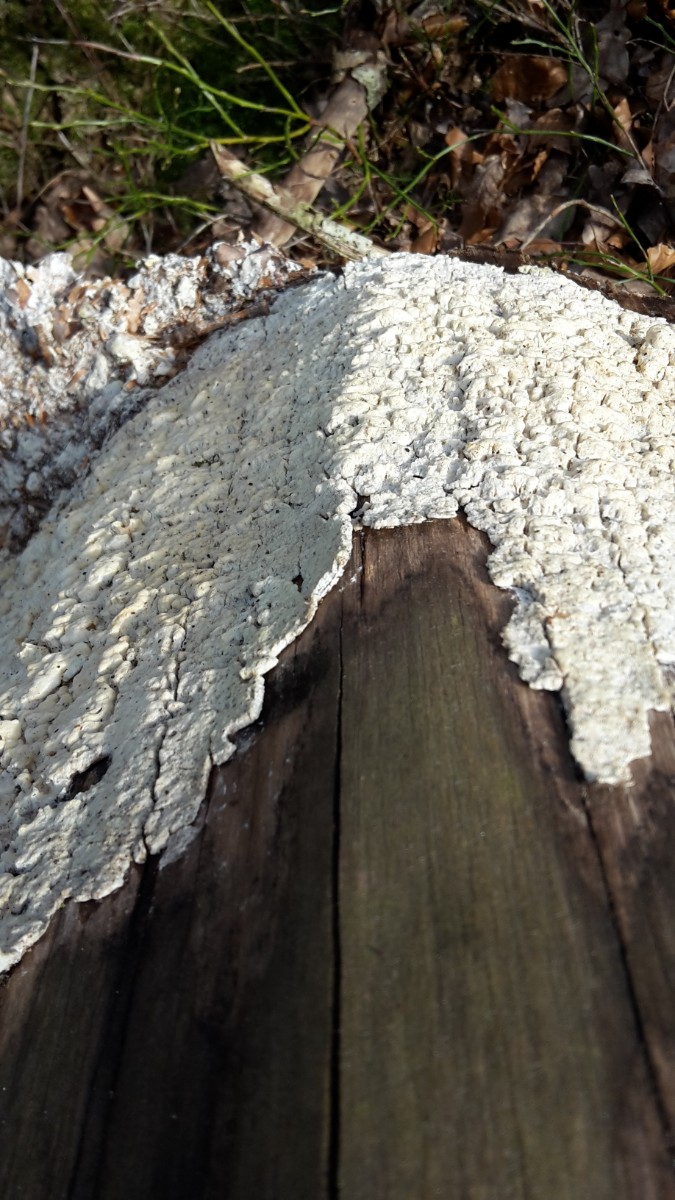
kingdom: Fungi
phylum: Basidiomycota
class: Agaricomycetes
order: Polyporales
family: Fomitopsidaceae
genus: Daedalea
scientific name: Daedalea xantha
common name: gul sejporesvamp
